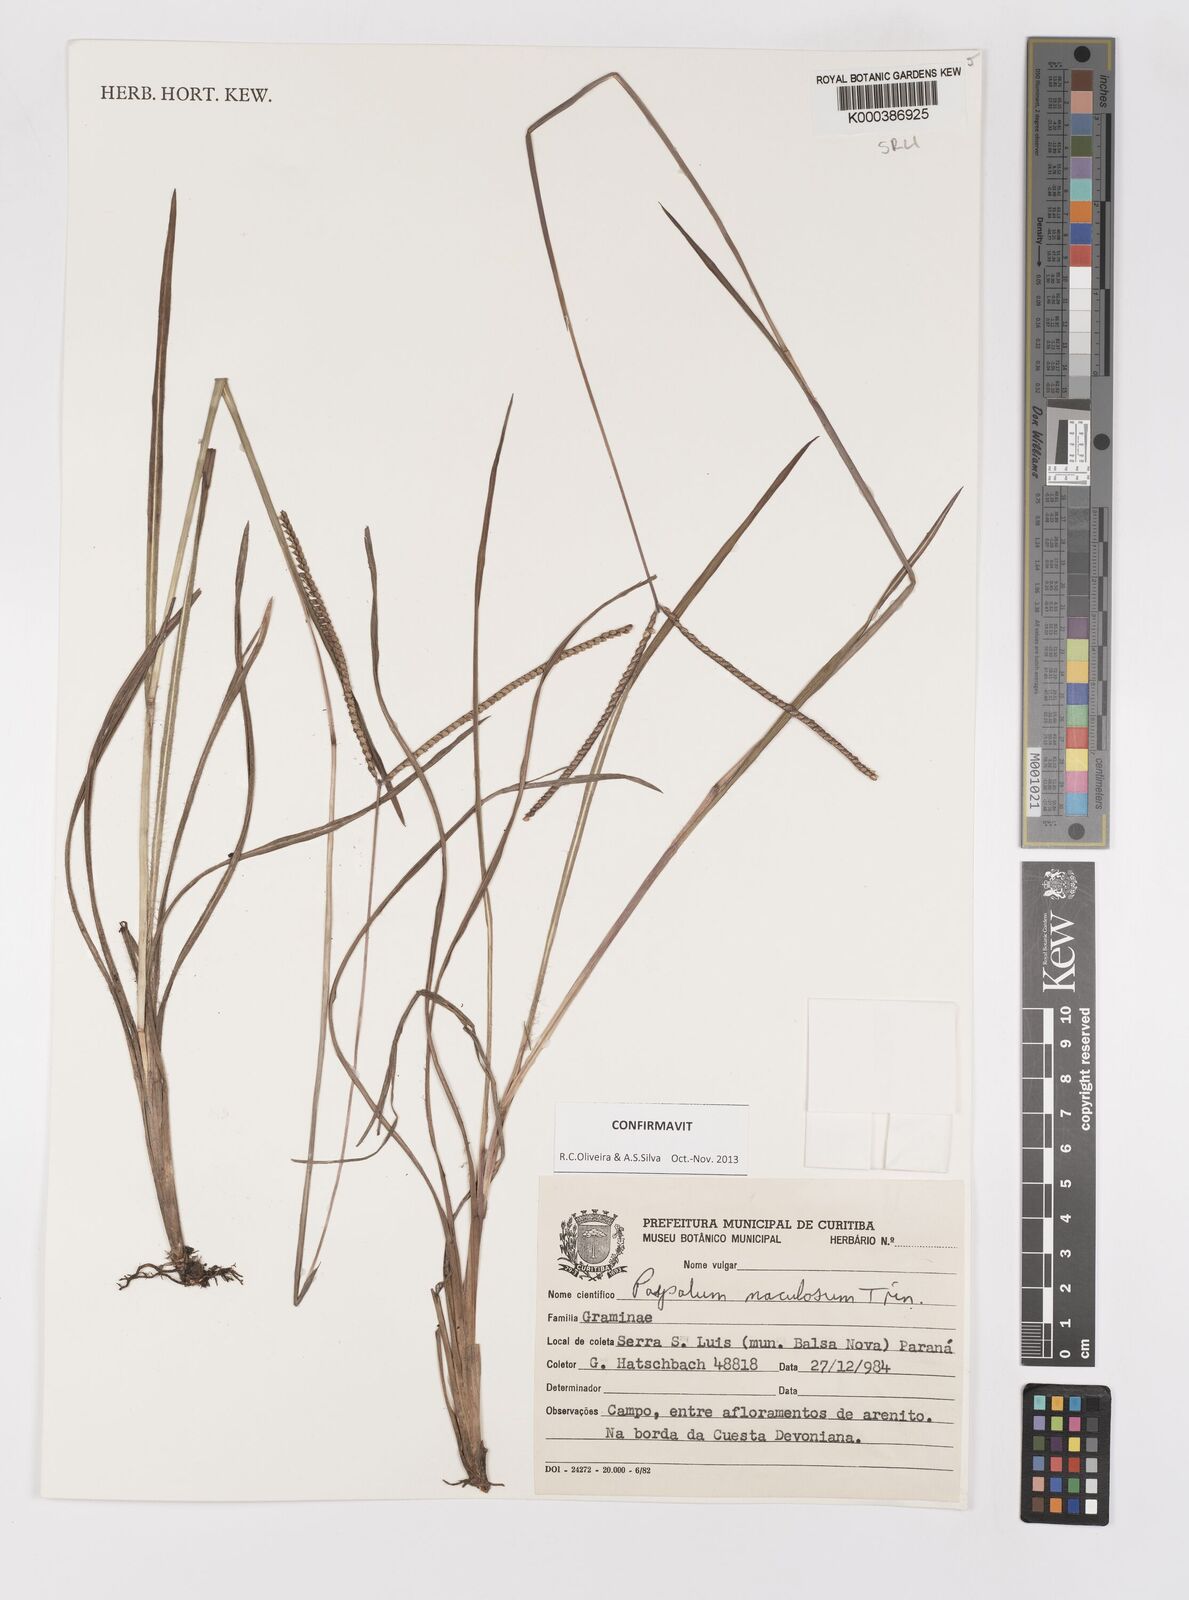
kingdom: Plantae
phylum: Tracheophyta
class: Liliopsida
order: Poales
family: Poaceae
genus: Paspalum
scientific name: Paspalum maculosum
